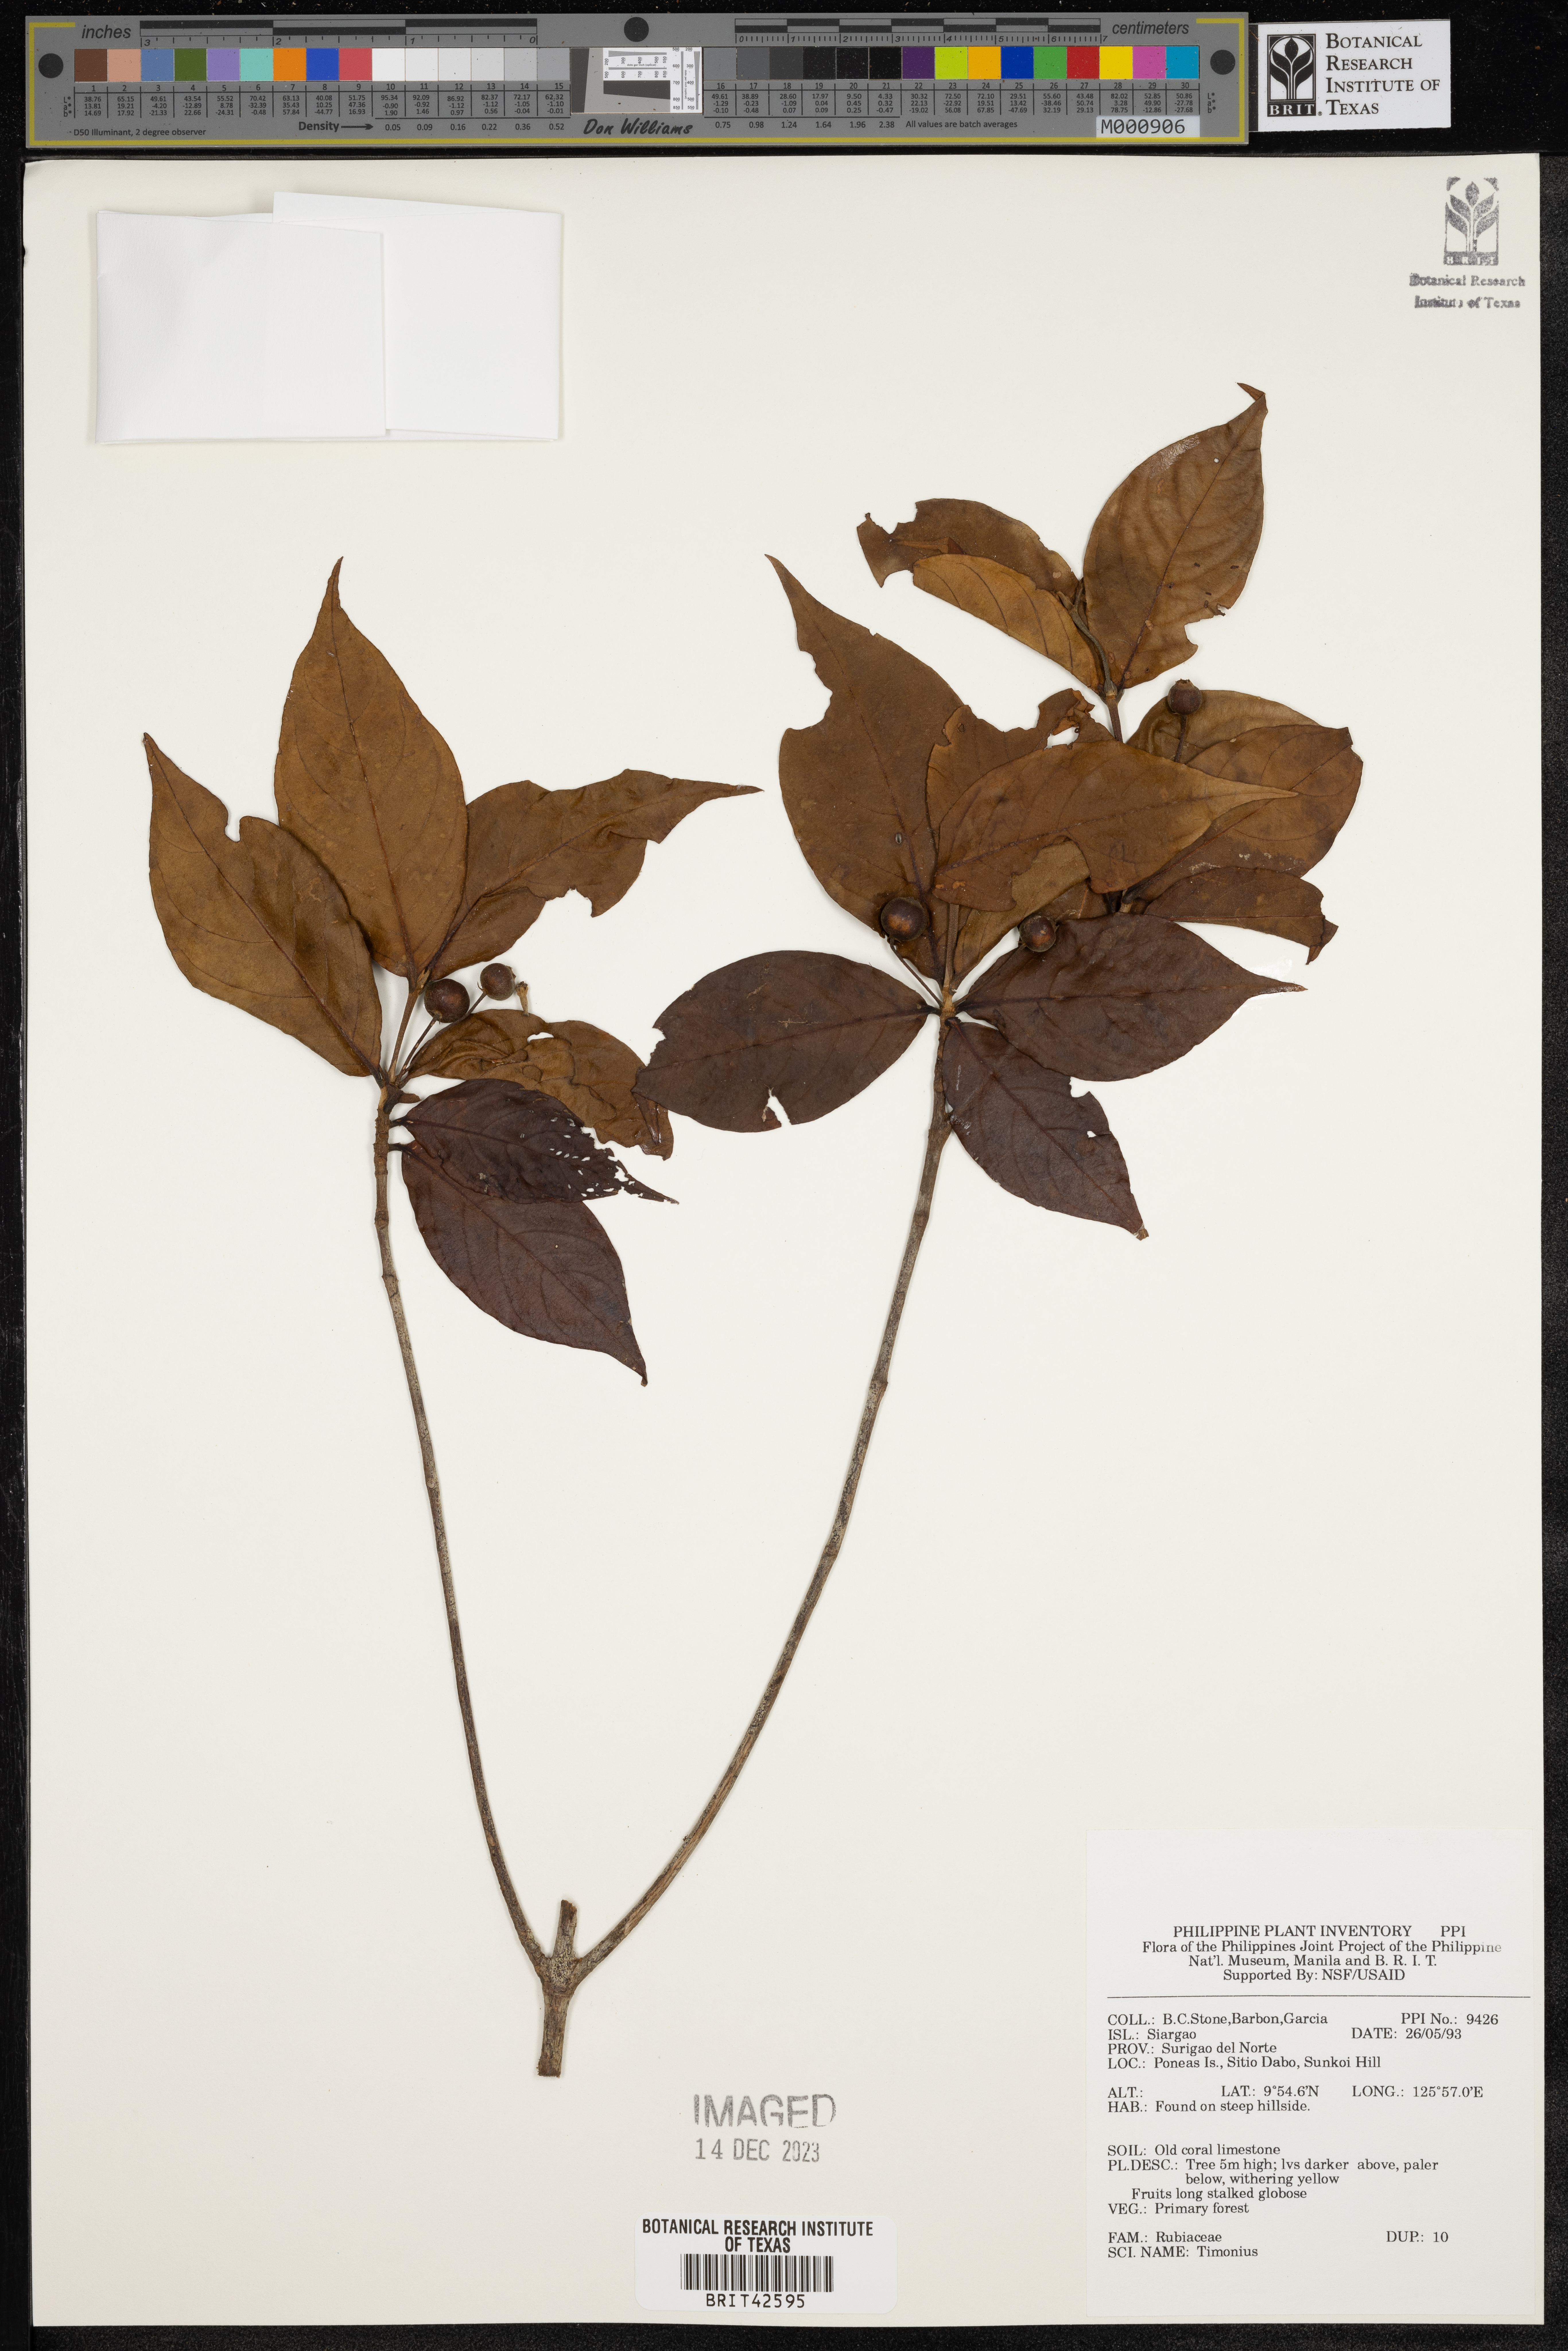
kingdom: Plantae
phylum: Tracheophyta
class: Magnoliopsida
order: Gentianales
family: Rubiaceae
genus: Timonius
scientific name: Timonius
